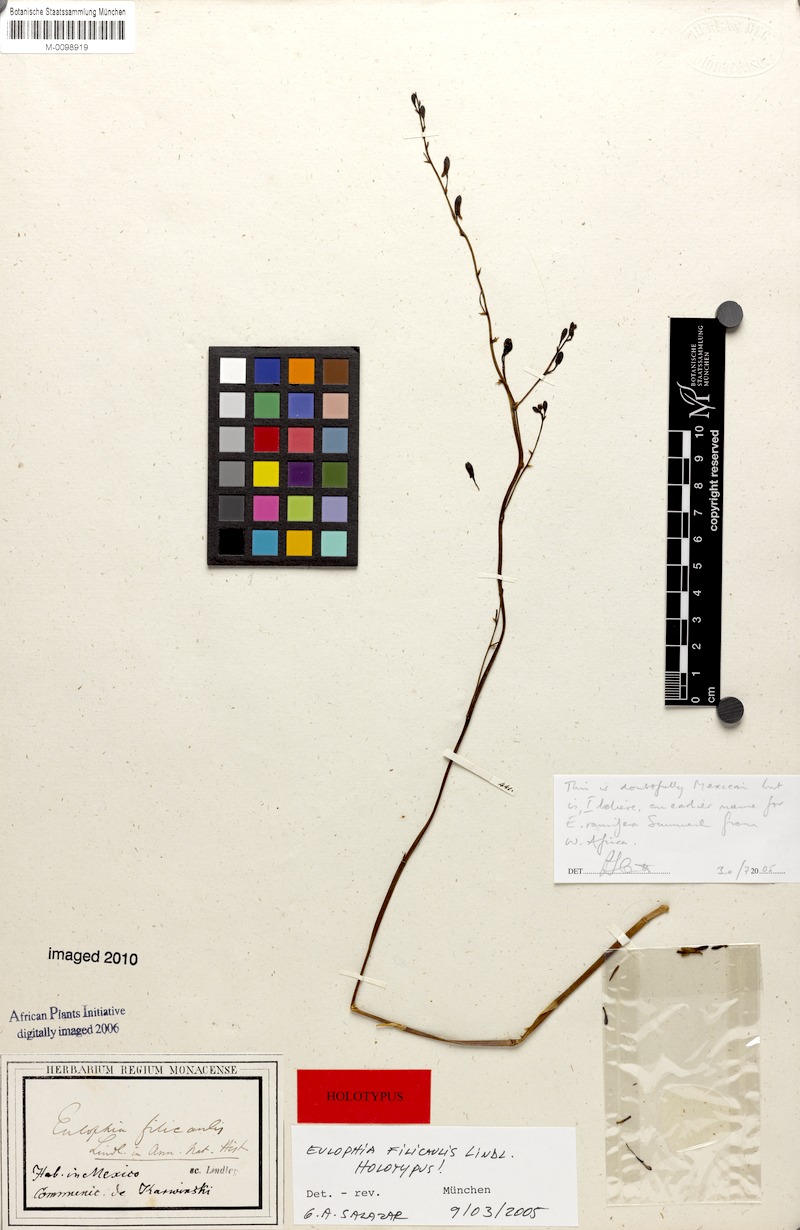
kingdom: Plantae
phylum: Tracheophyta
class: Liliopsida
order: Asparagales
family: Orchidaceae
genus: Eulophia
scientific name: Eulophia filicaulis
